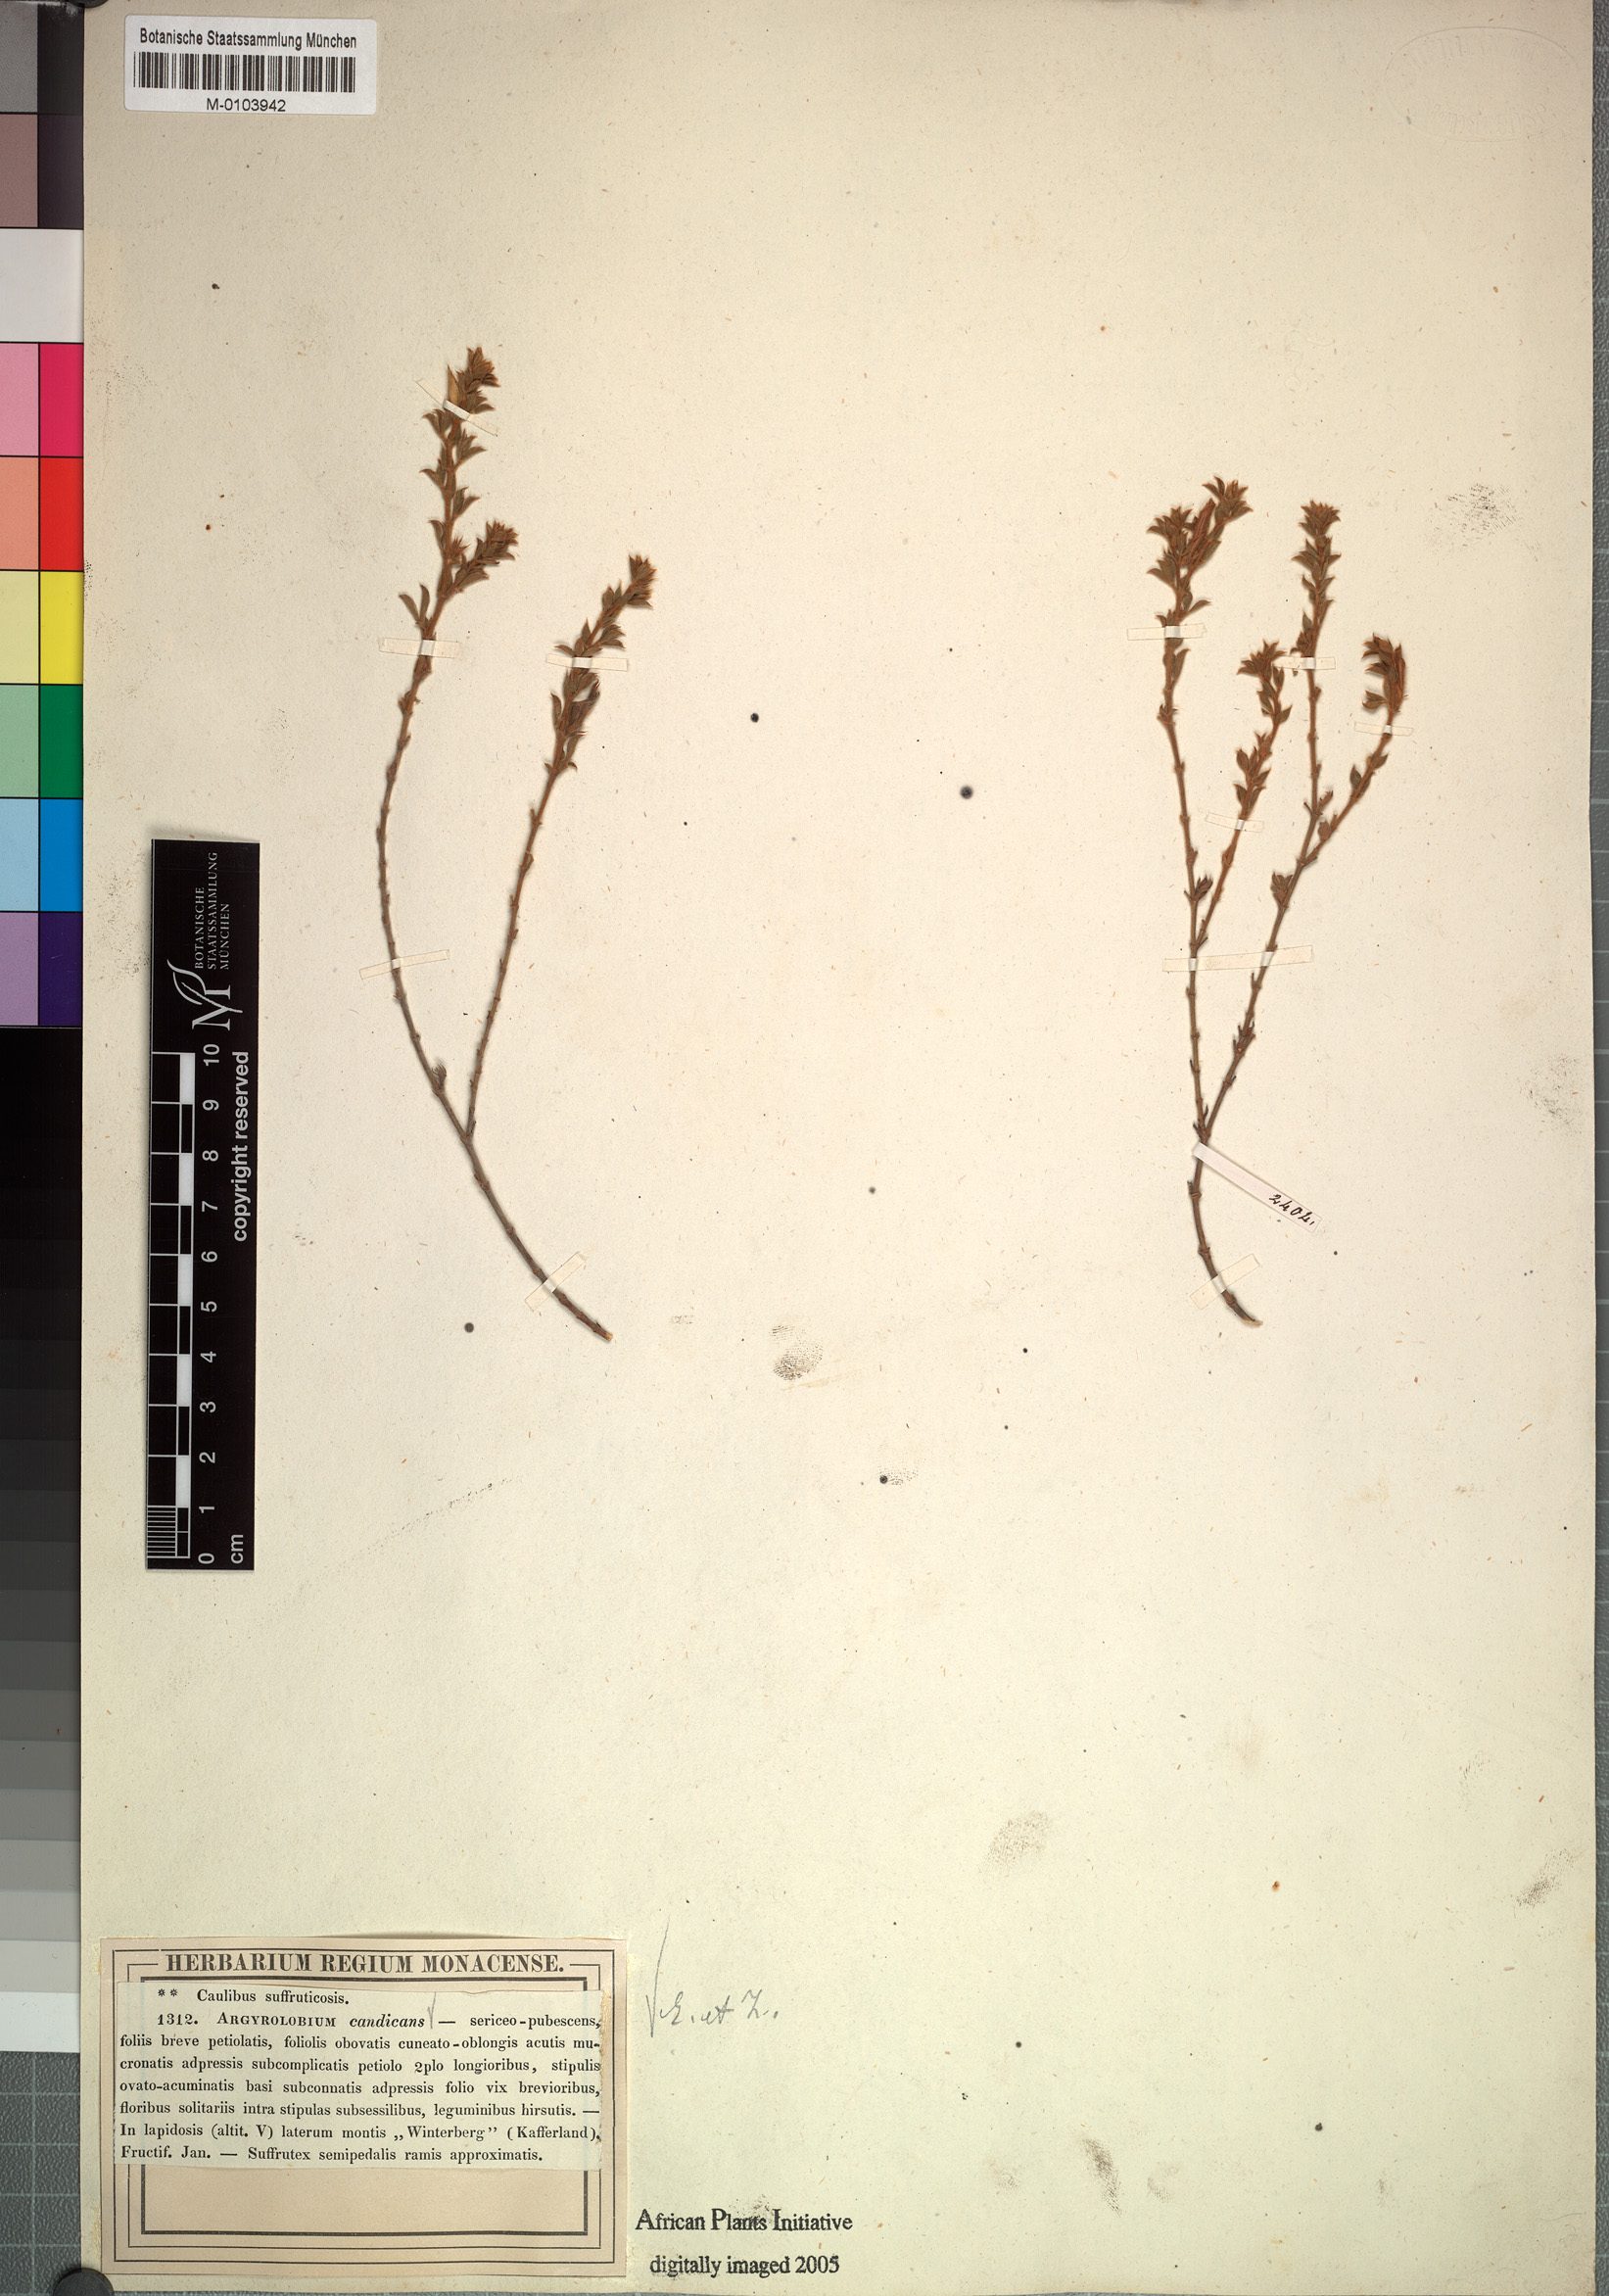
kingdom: Plantae
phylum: Tracheophyta
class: Magnoliopsida
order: Fabales
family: Fabaceae
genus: Argyrolobium
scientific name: Argyrolobium candicans
